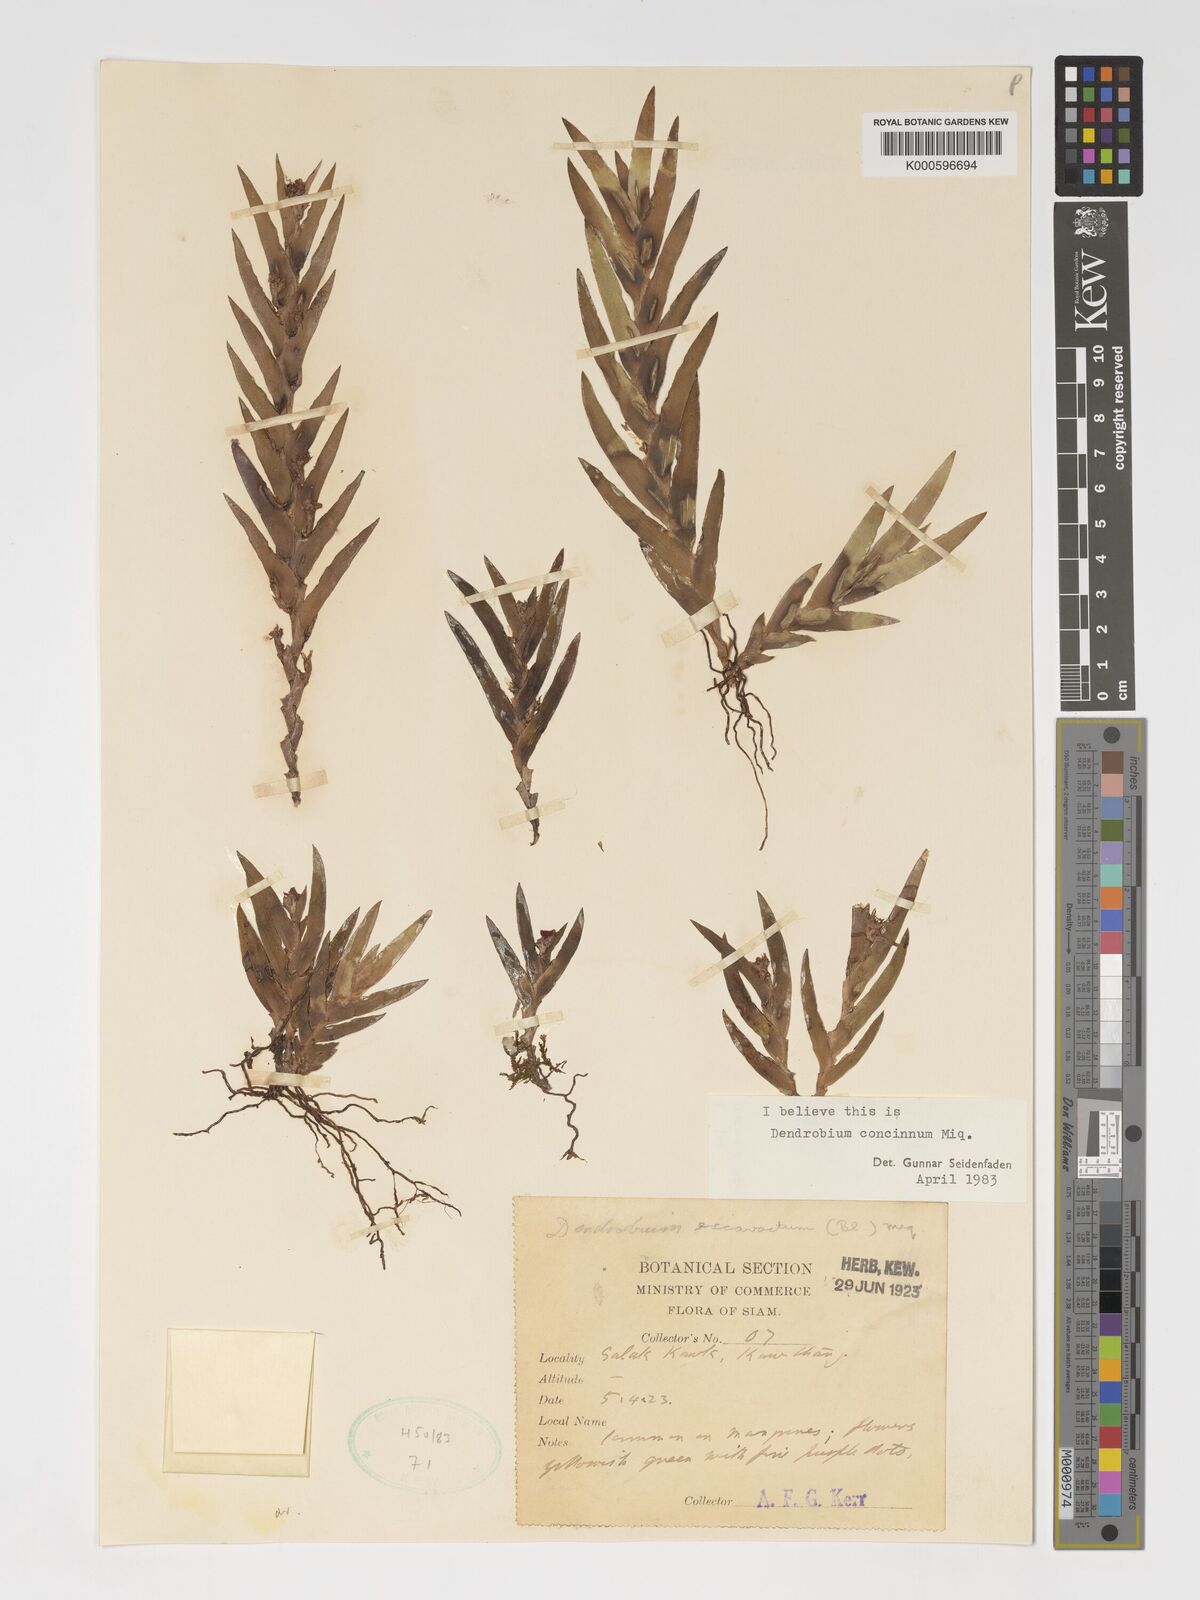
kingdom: Plantae
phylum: Tracheophyta
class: Liliopsida
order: Asparagales
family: Orchidaceae
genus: Oxystophyllum
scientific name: Oxystophyllum carnosum
